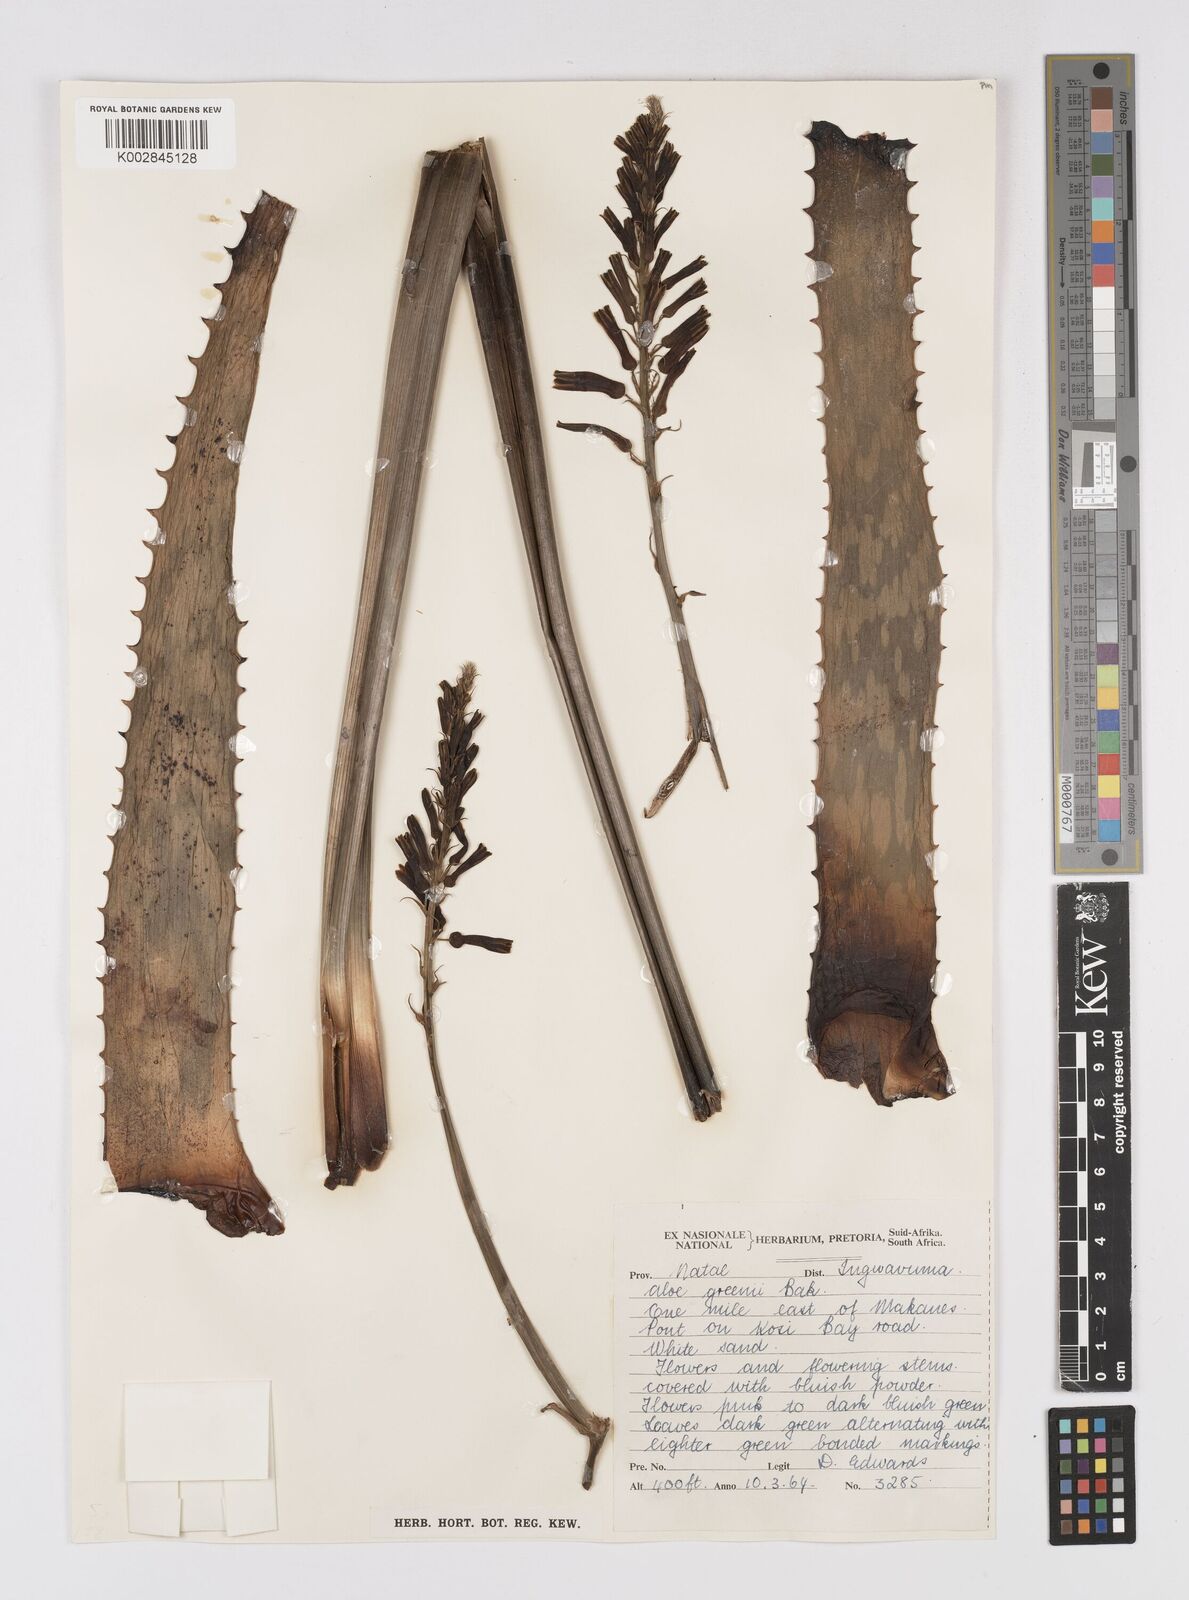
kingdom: Plantae
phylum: Tracheophyta
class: Liliopsida
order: Asparagales
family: Asphodelaceae
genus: Aloe
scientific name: Aloe greenii
